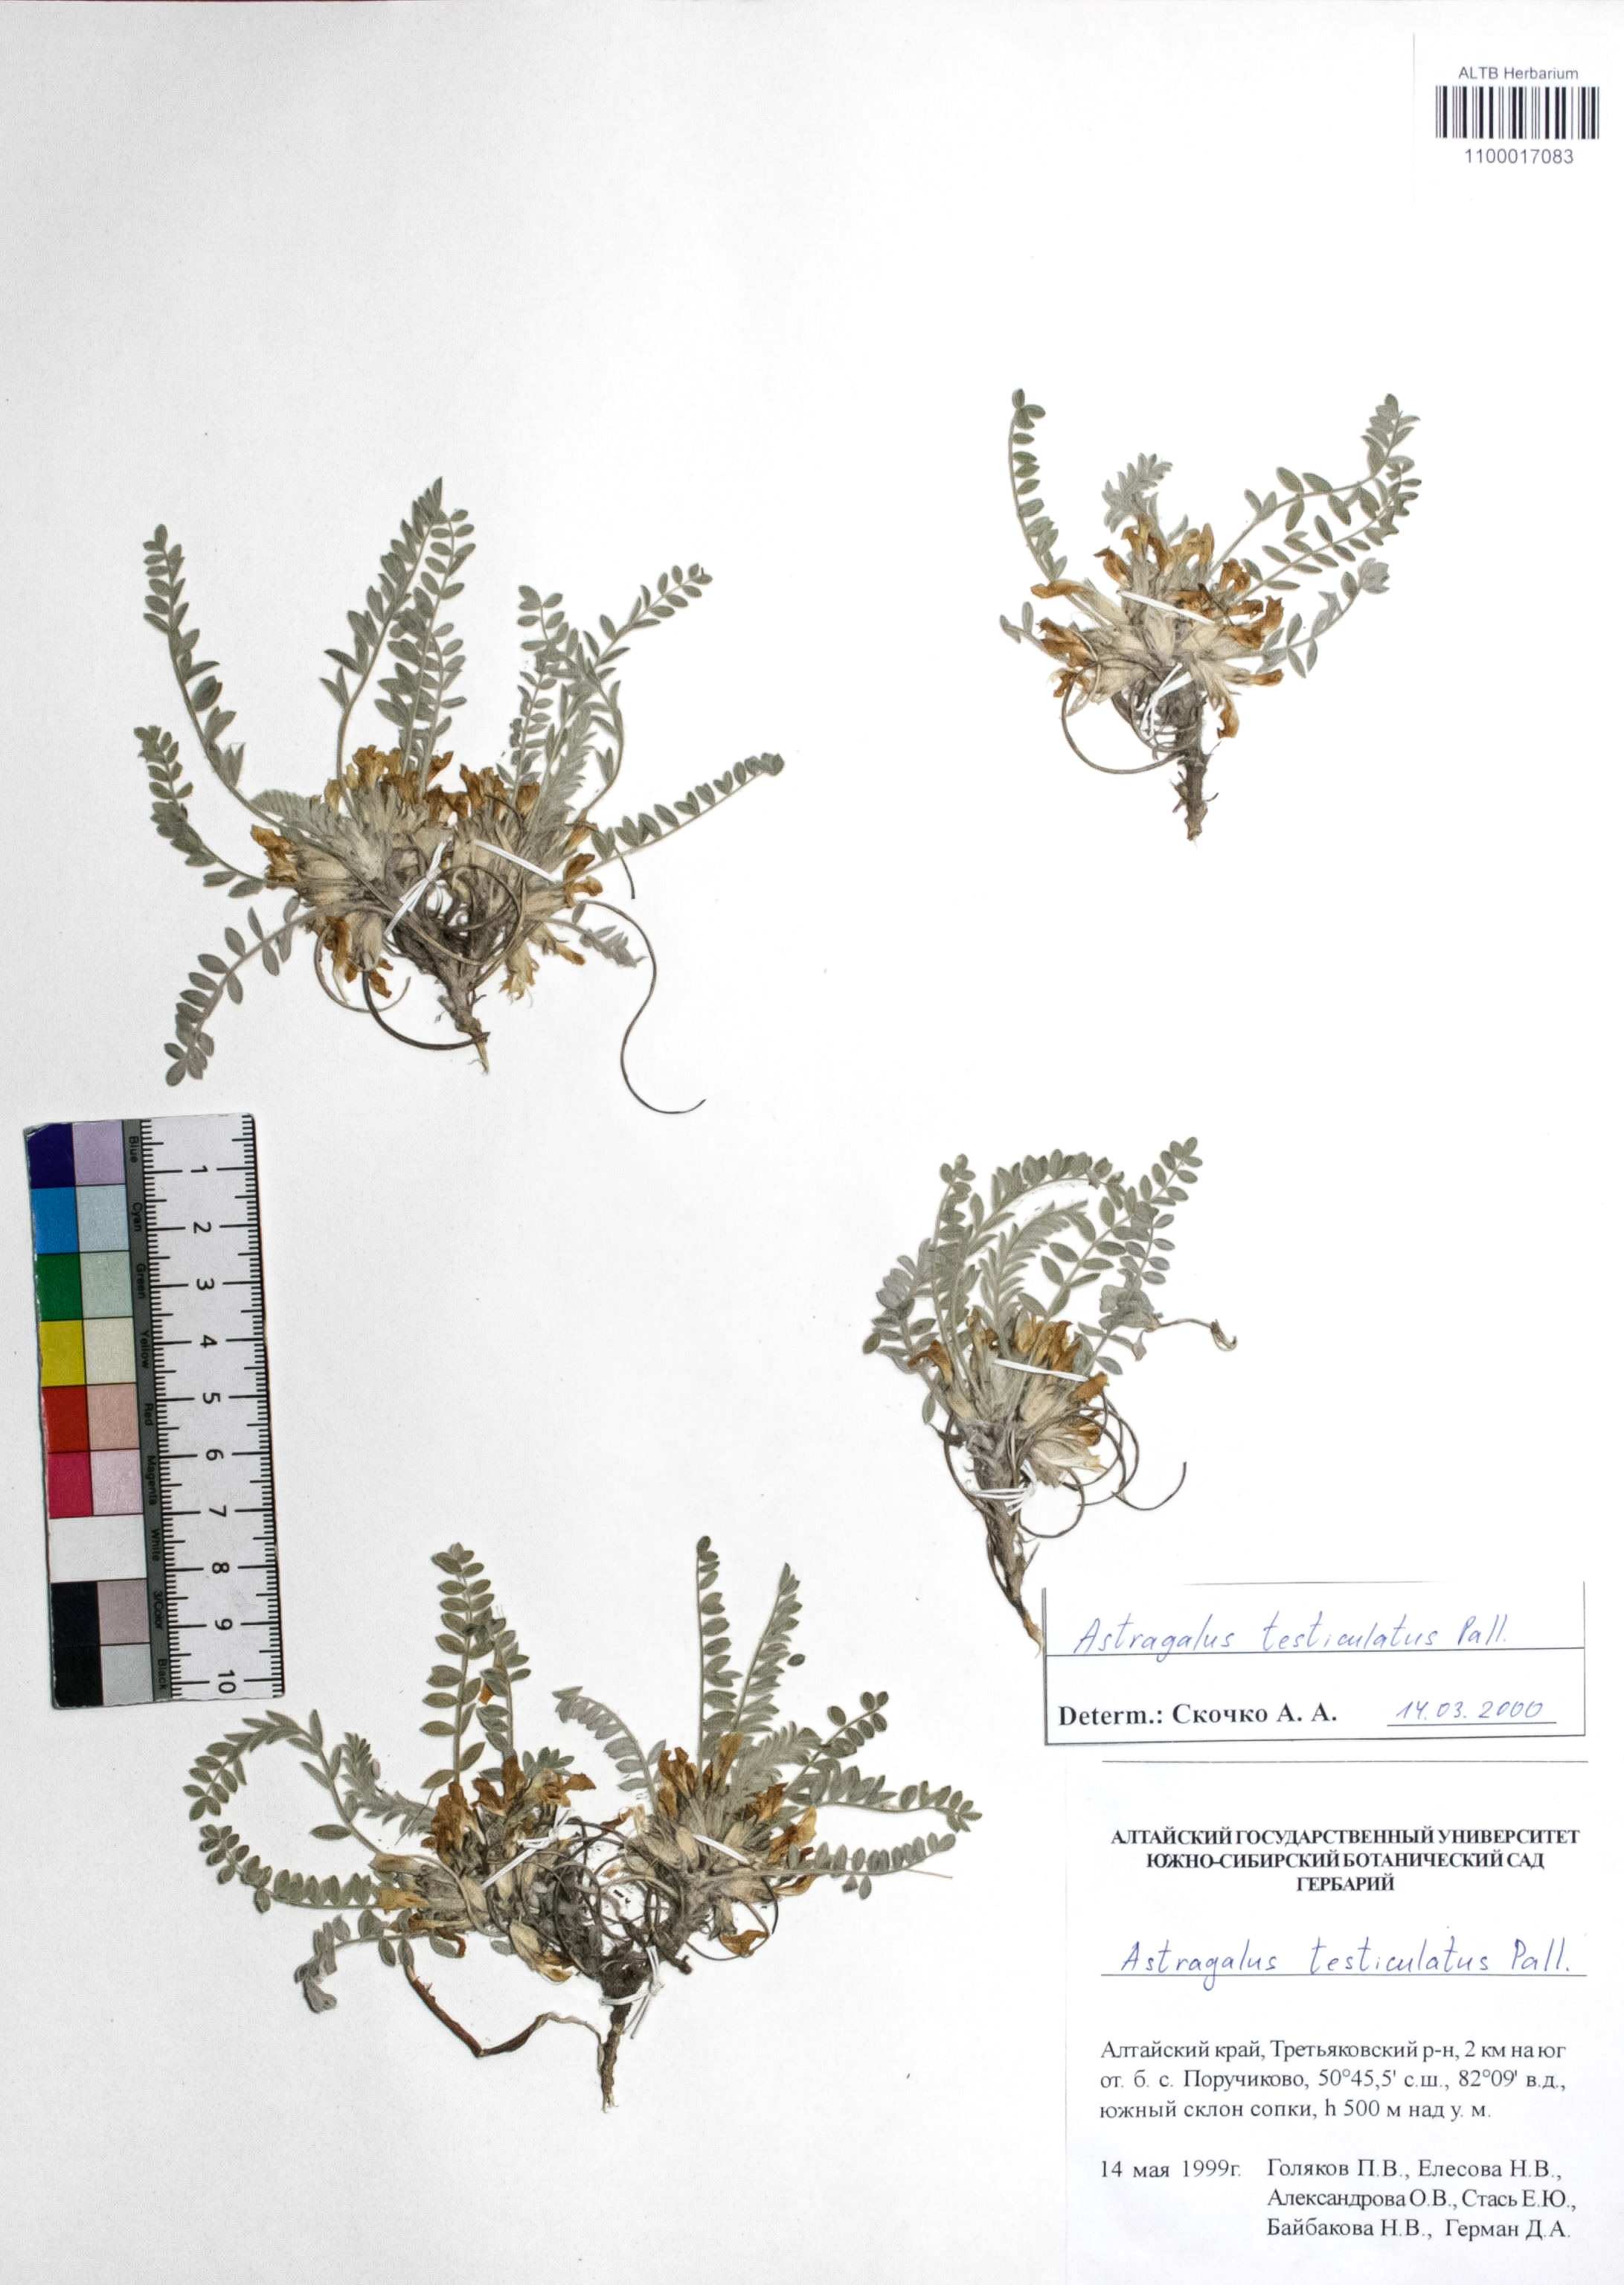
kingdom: Plantae
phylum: Tracheophyta
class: Magnoliopsida
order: Fabales
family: Fabaceae
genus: Astragalus
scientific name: Astragalus testiculatus
